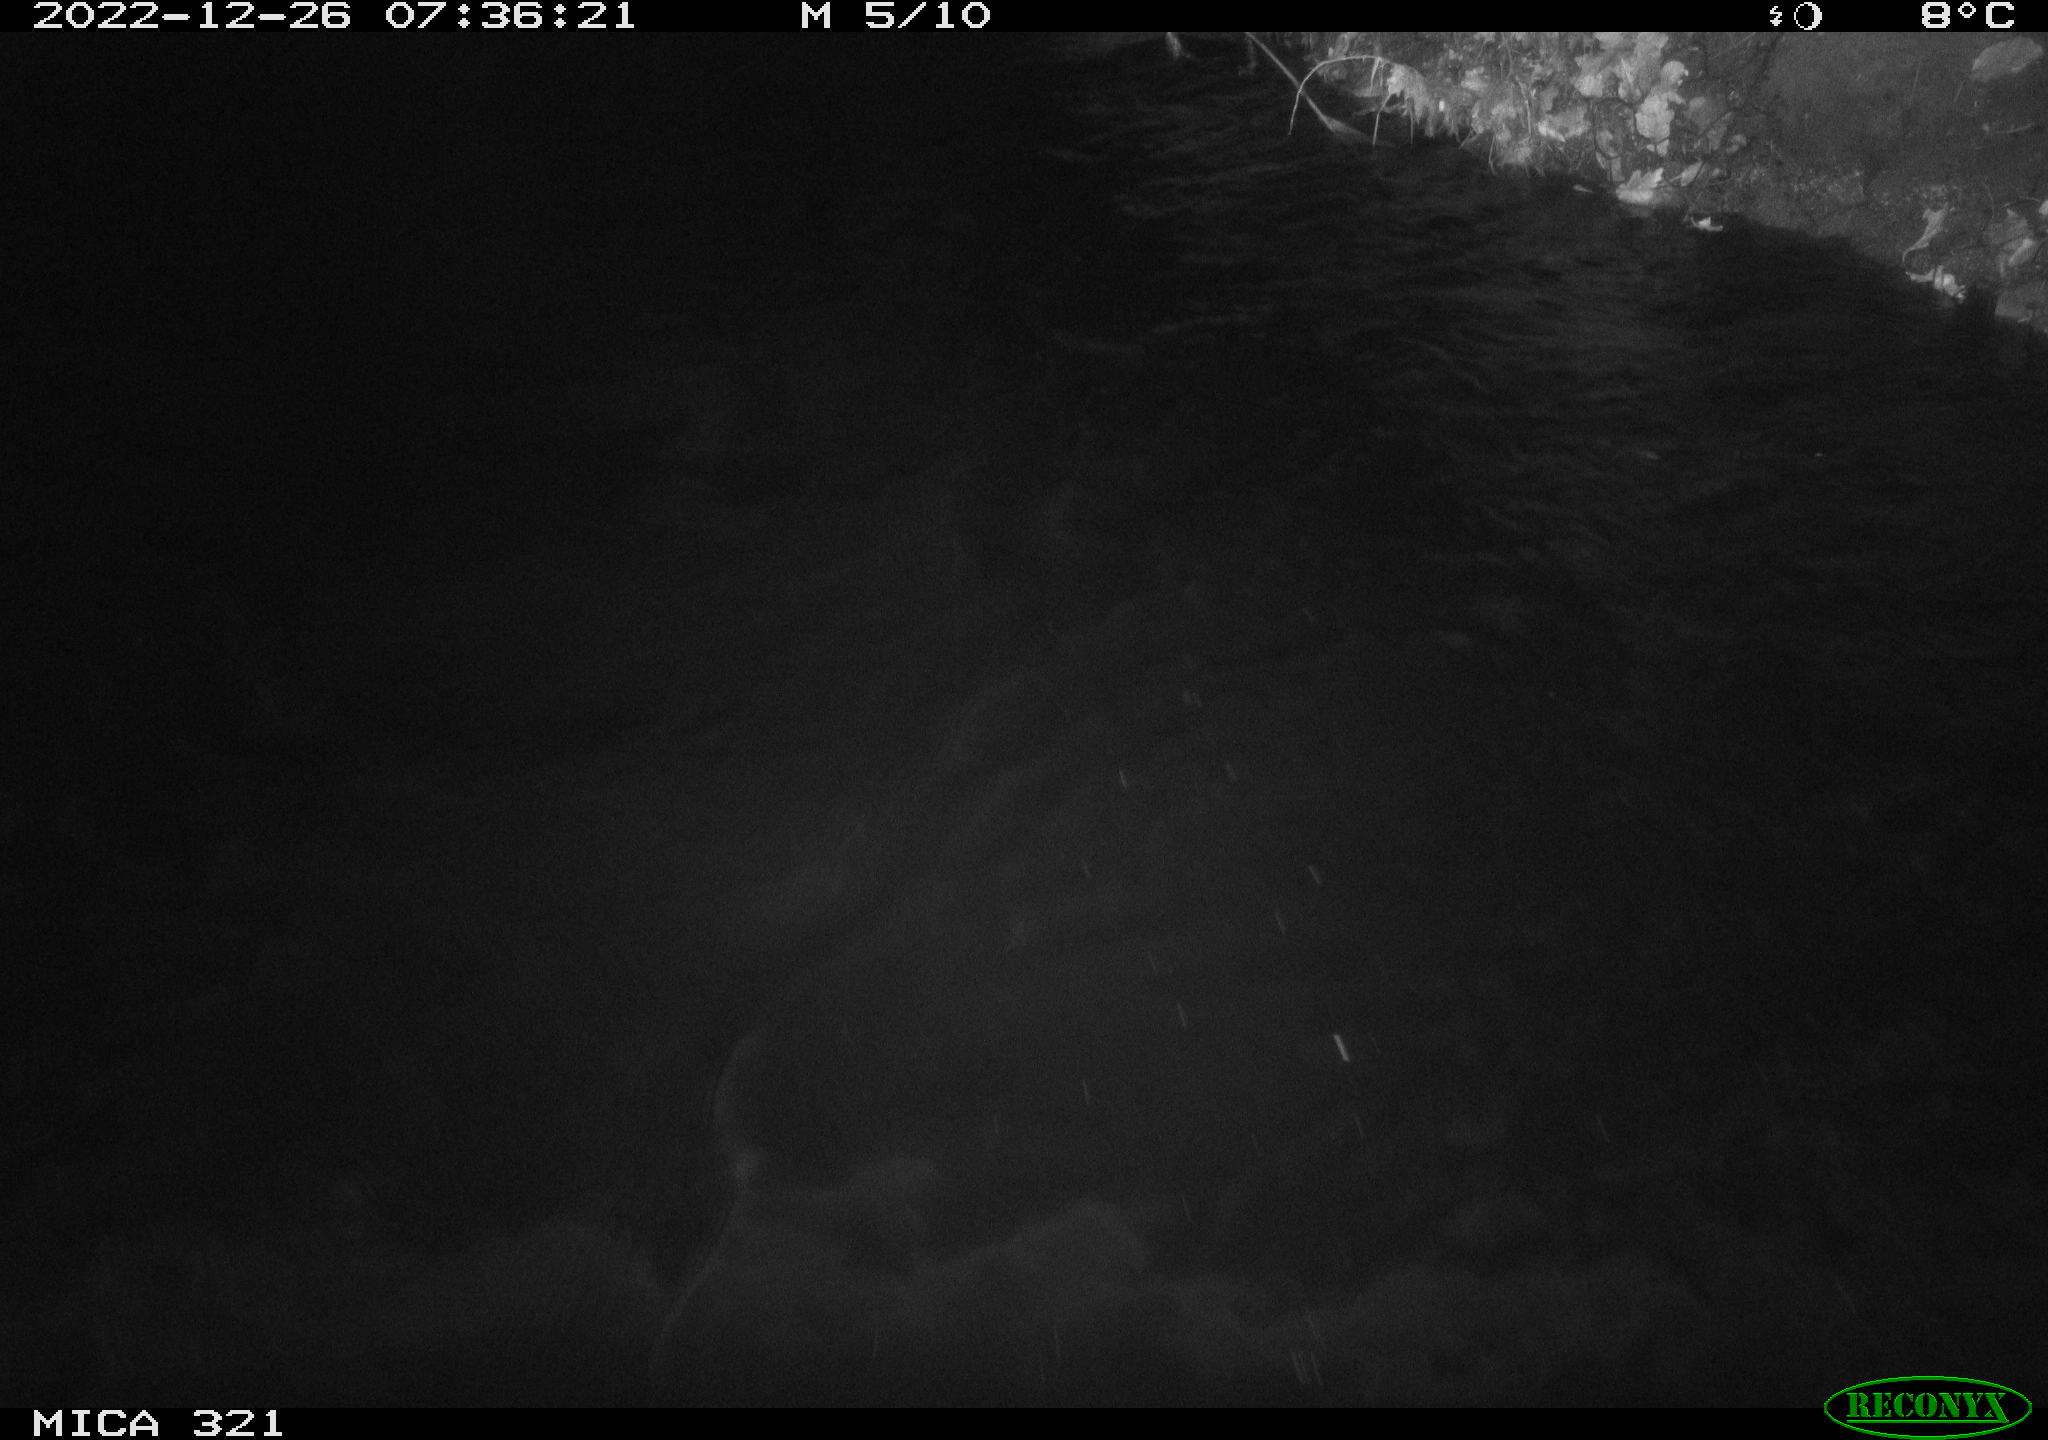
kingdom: Animalia
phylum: Chordata
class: Aves
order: Anseriformes
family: Anatidae
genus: Anas
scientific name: Anas
